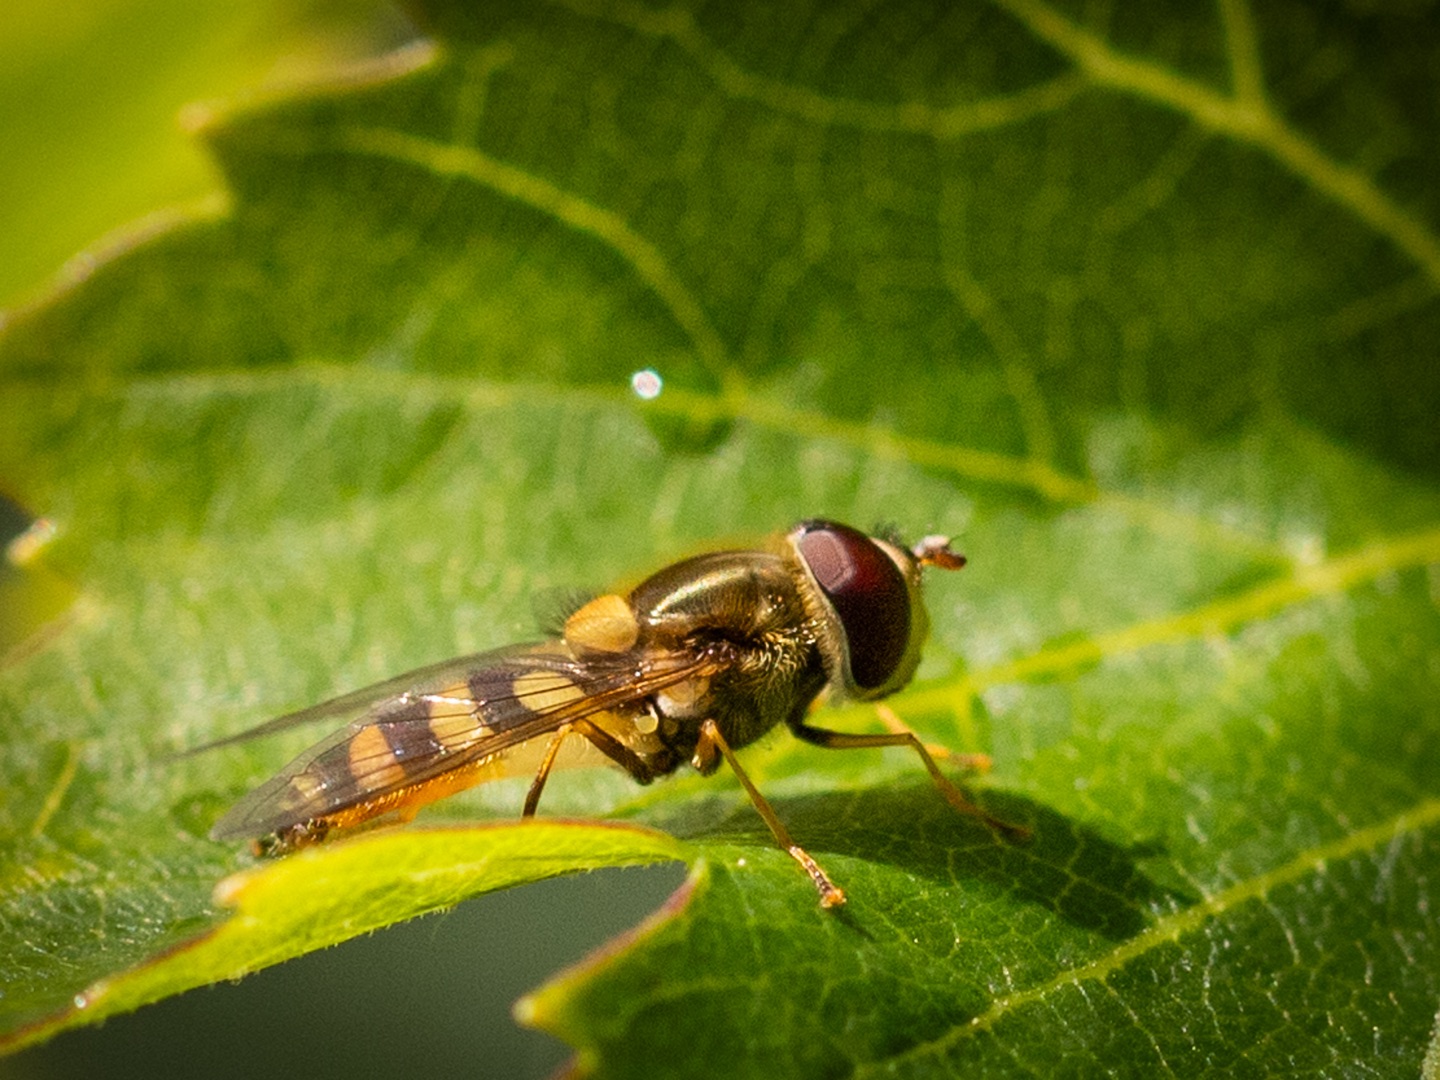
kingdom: Animalia
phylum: Arthropoda
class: Insecta
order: Diptera
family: Syrphidae
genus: Episyrphus
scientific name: Episyrphus balteatus
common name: Dobbeltbåndet svirreflue
